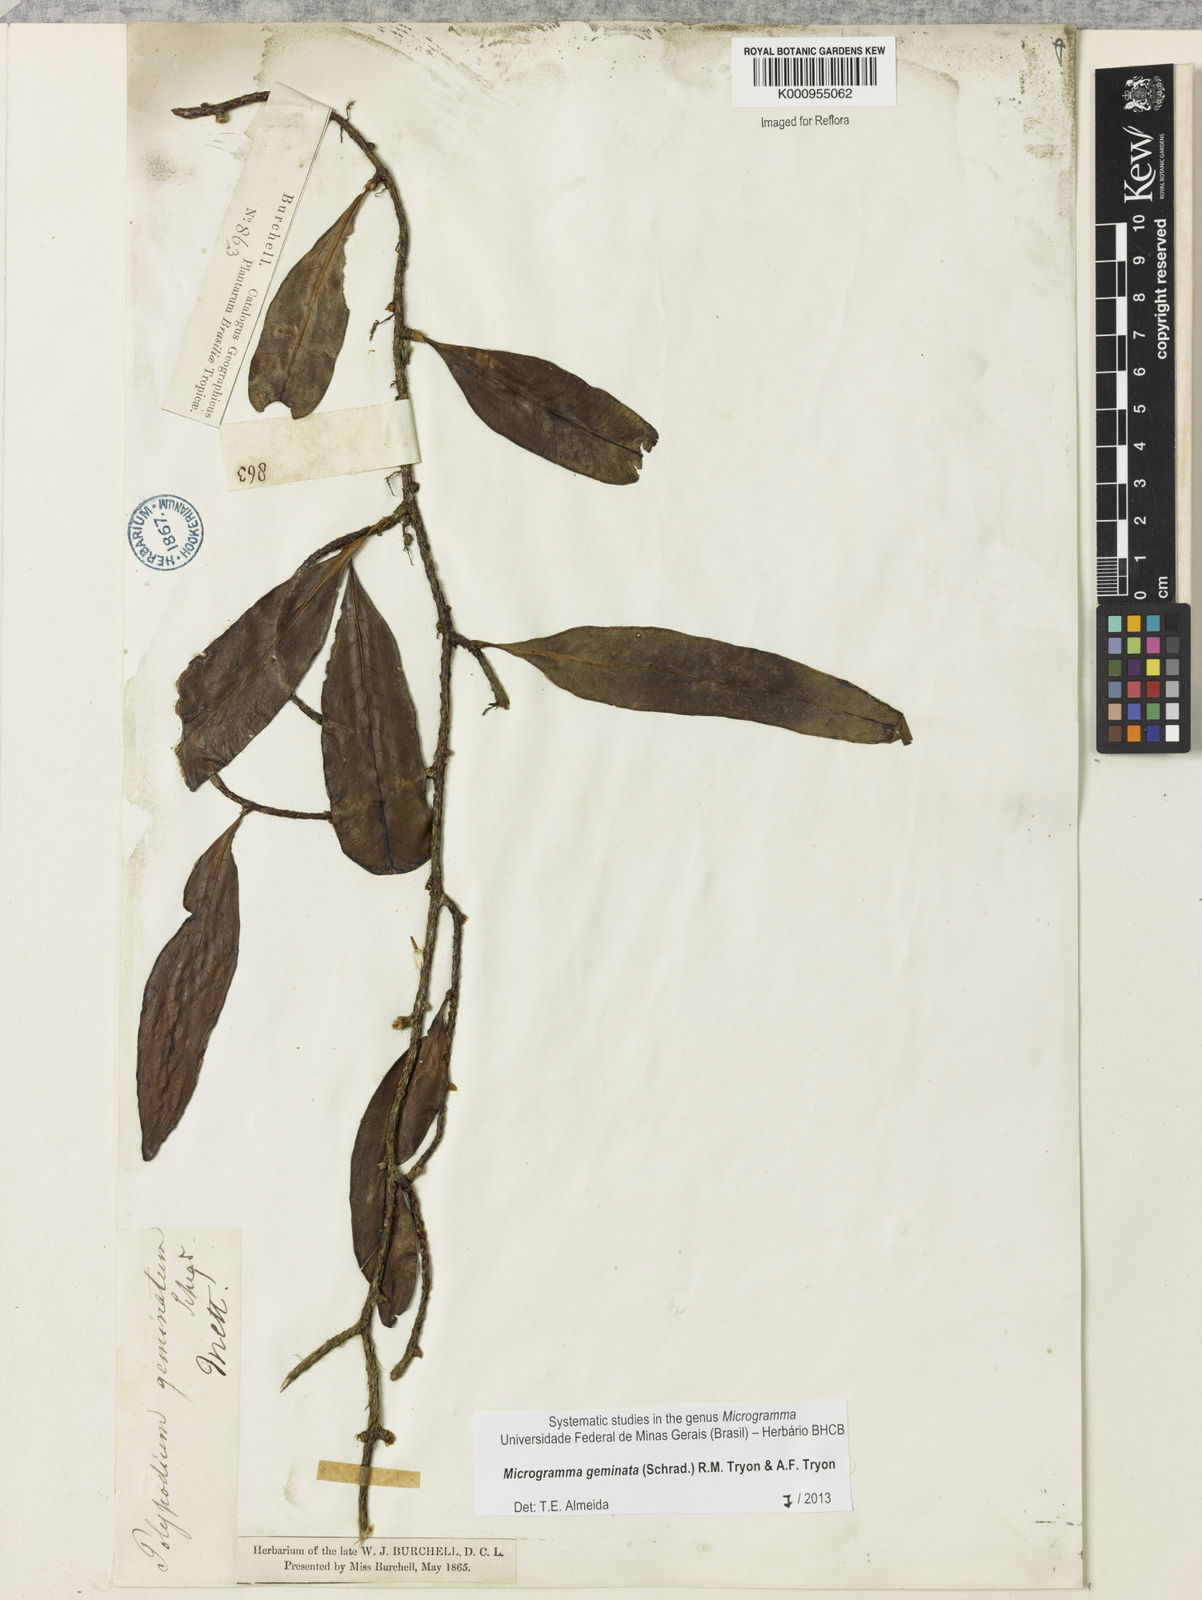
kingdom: Plantae
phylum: Tracheophyta
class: Polypodiopsida
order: Polypodiales
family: Polypodiaceae
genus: Microgramma
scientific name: Microgramma geminata
